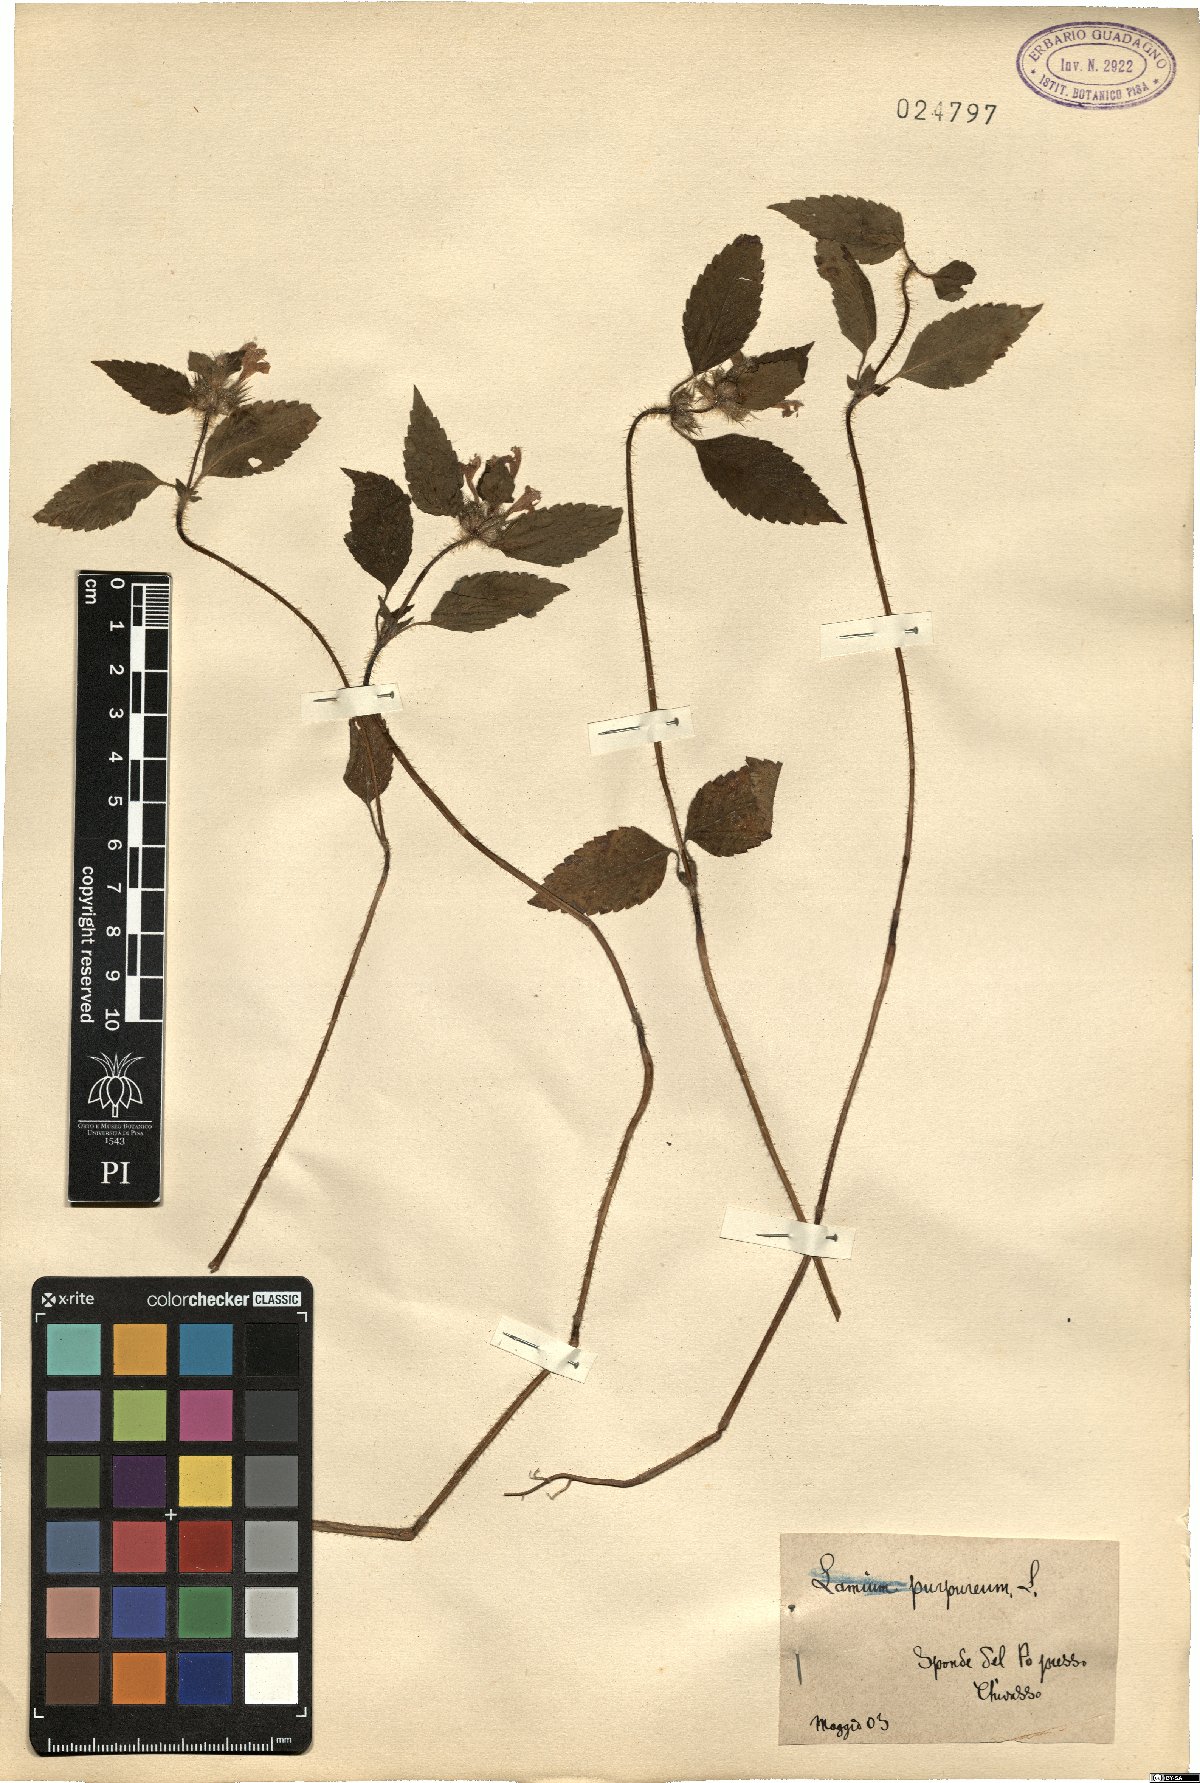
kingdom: Plantae
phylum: Tracheophyta
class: Magnoliopsida
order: Lamiales
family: Lamiaceae
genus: Galeopsis
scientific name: Galeopsis
